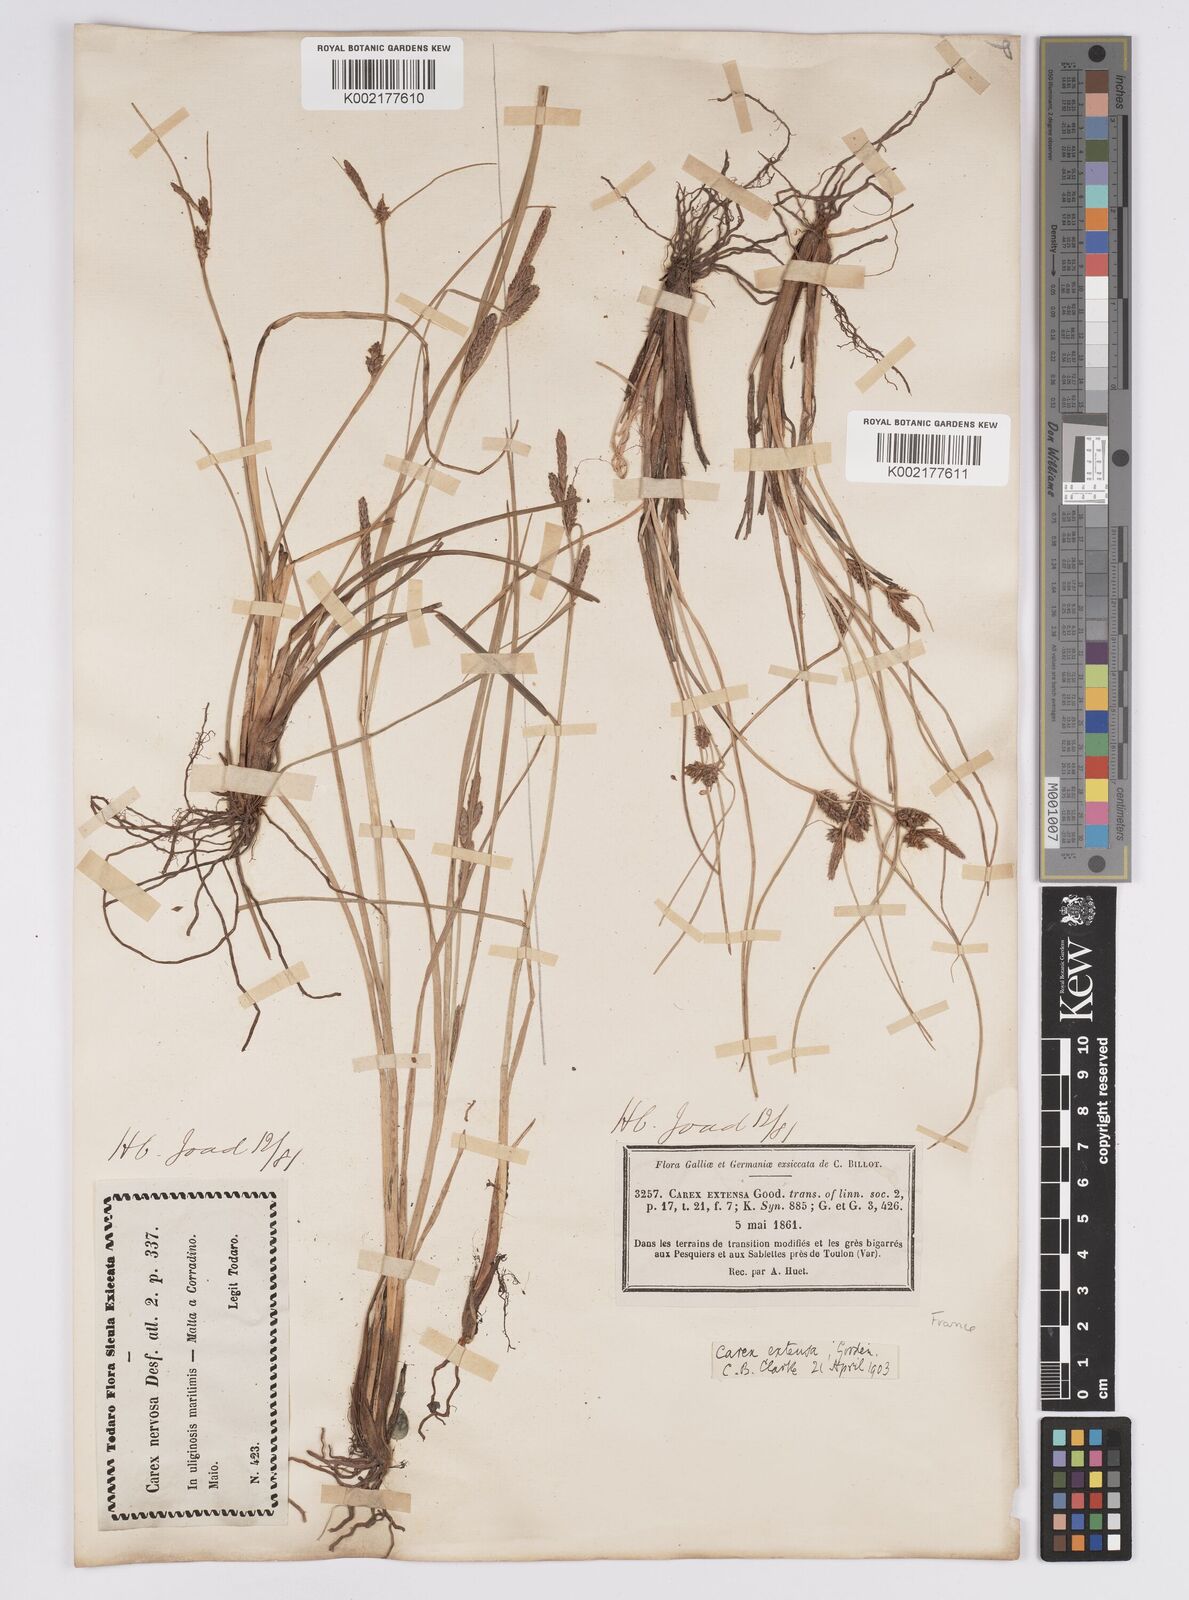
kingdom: Plantae
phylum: Tracheophyta
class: Liliopsida
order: Poales
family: Cyperaceae
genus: Carex
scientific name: Carex extensa
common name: Long-bracted sedge
